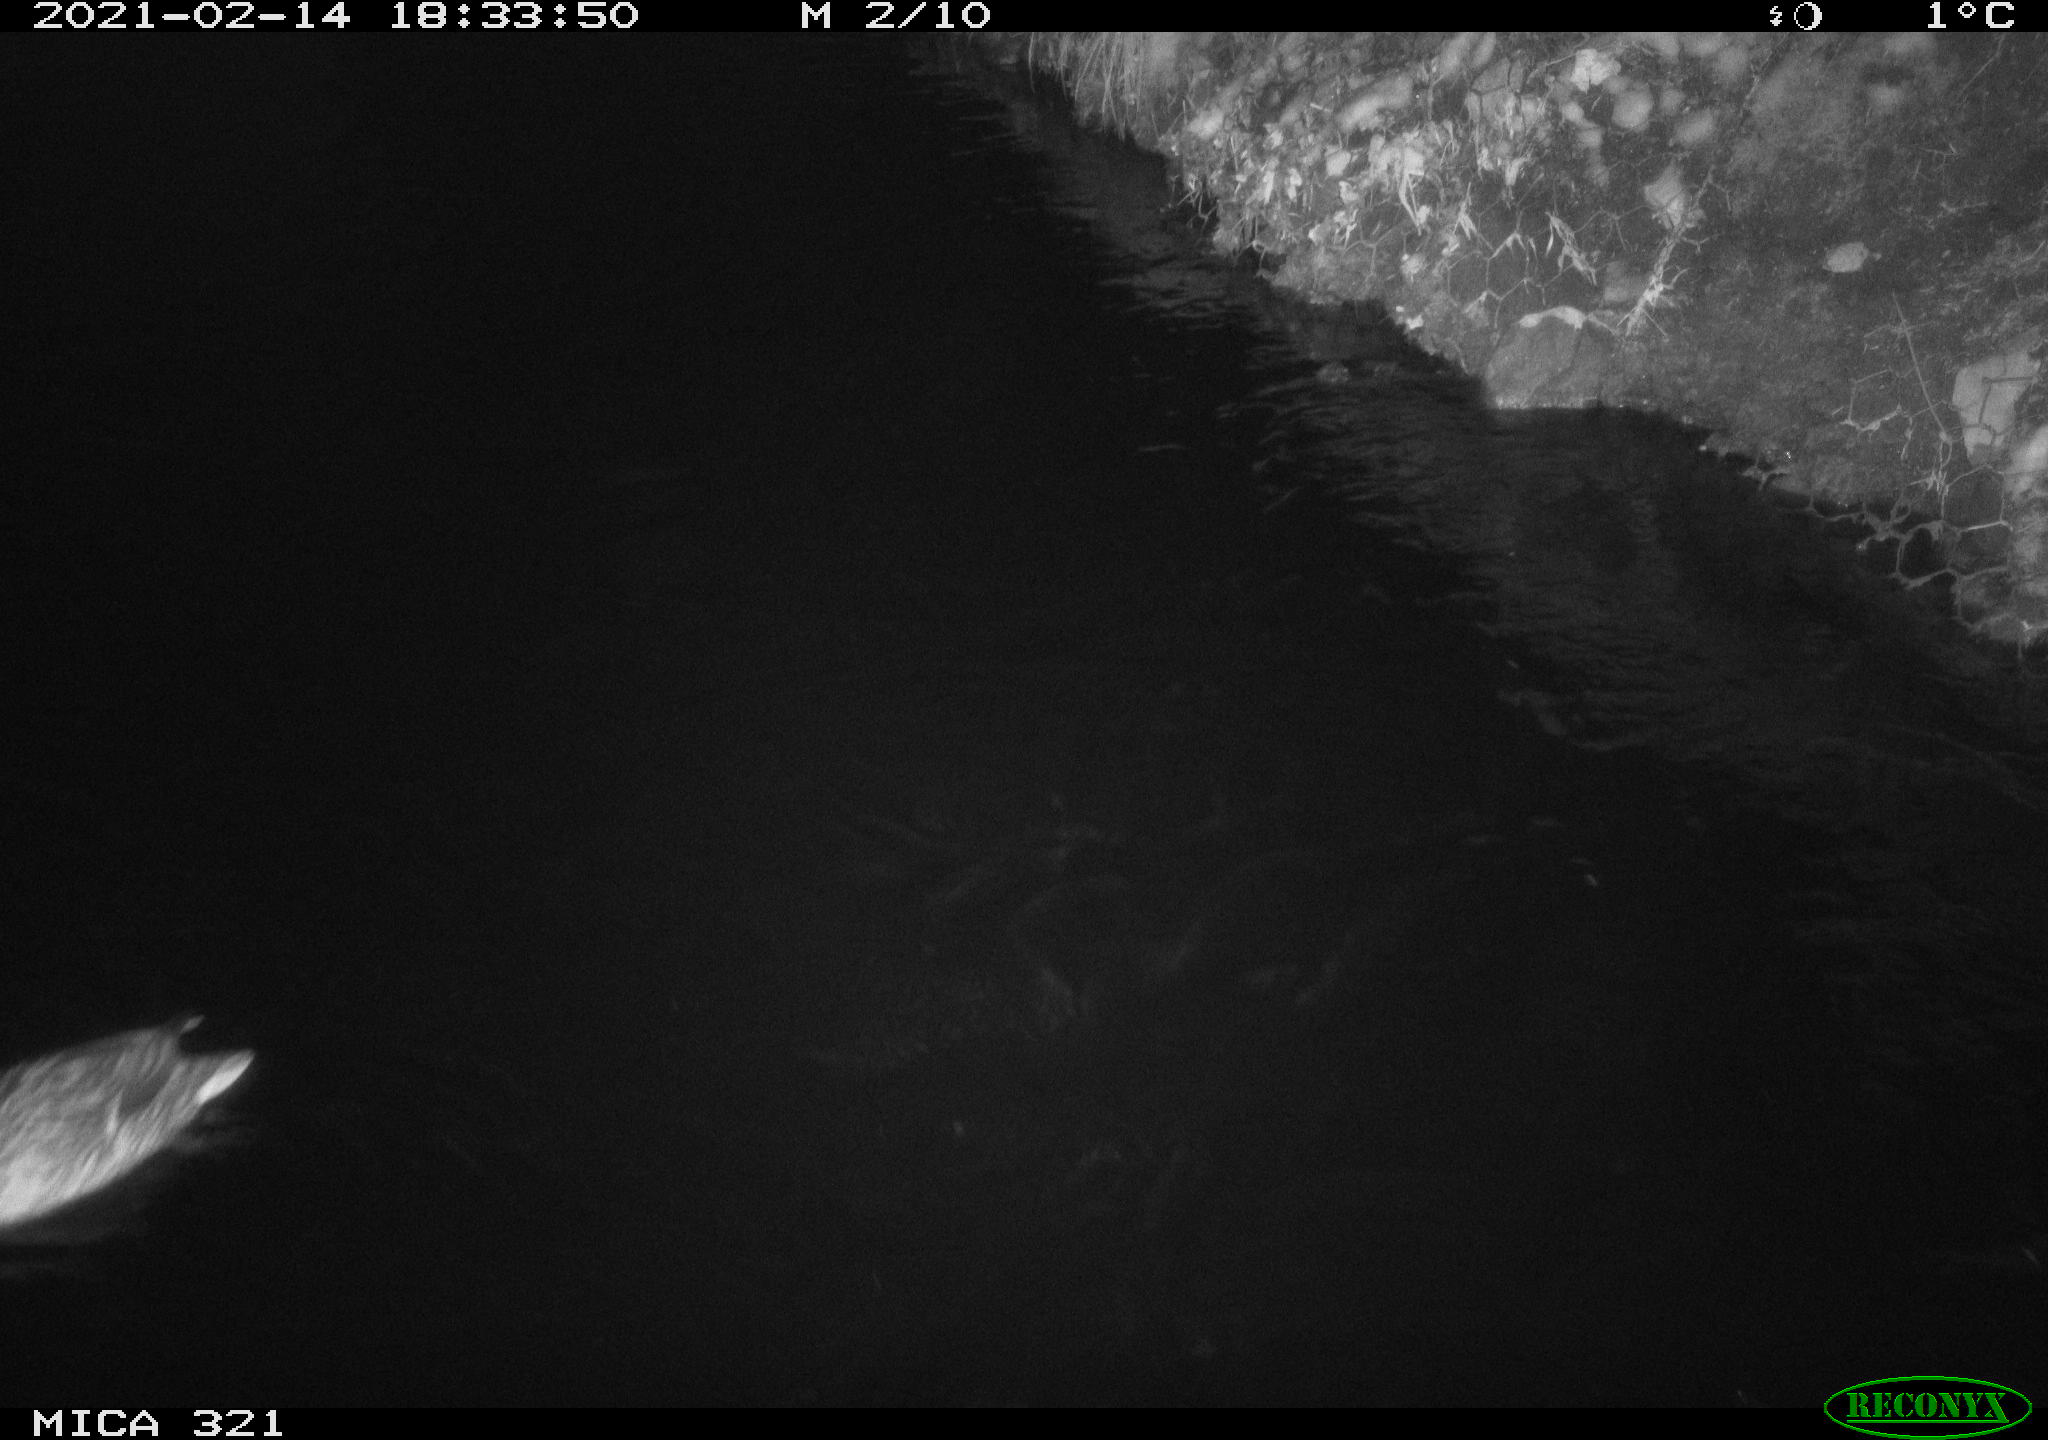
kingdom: Animalia
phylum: Chordata
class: Aves
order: Anseriformes
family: Anatidae
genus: Anas
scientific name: Anas platyrhynchos
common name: Mallard
